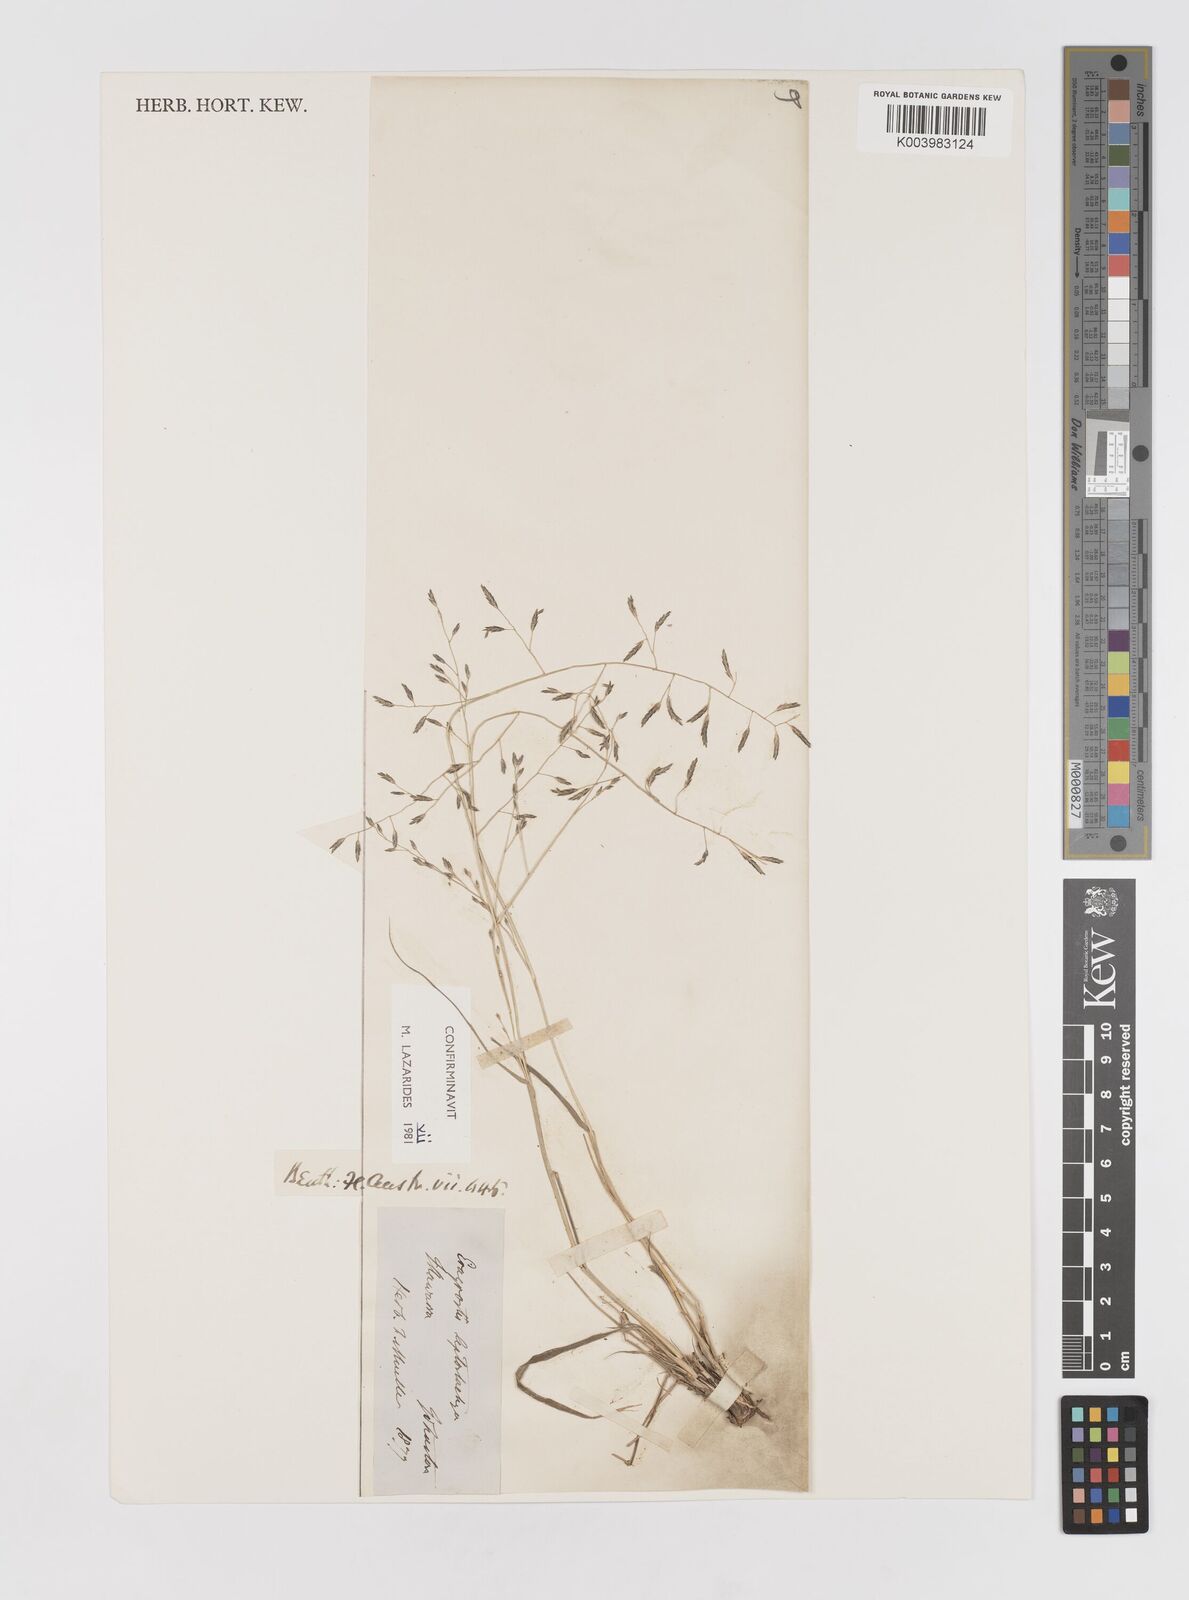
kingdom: Plantae
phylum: Tracheophyta
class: Liliopsida
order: Poales
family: Poaceae
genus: Eragrostis
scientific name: Eragrostis leptostachya
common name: Australian lovegrass
